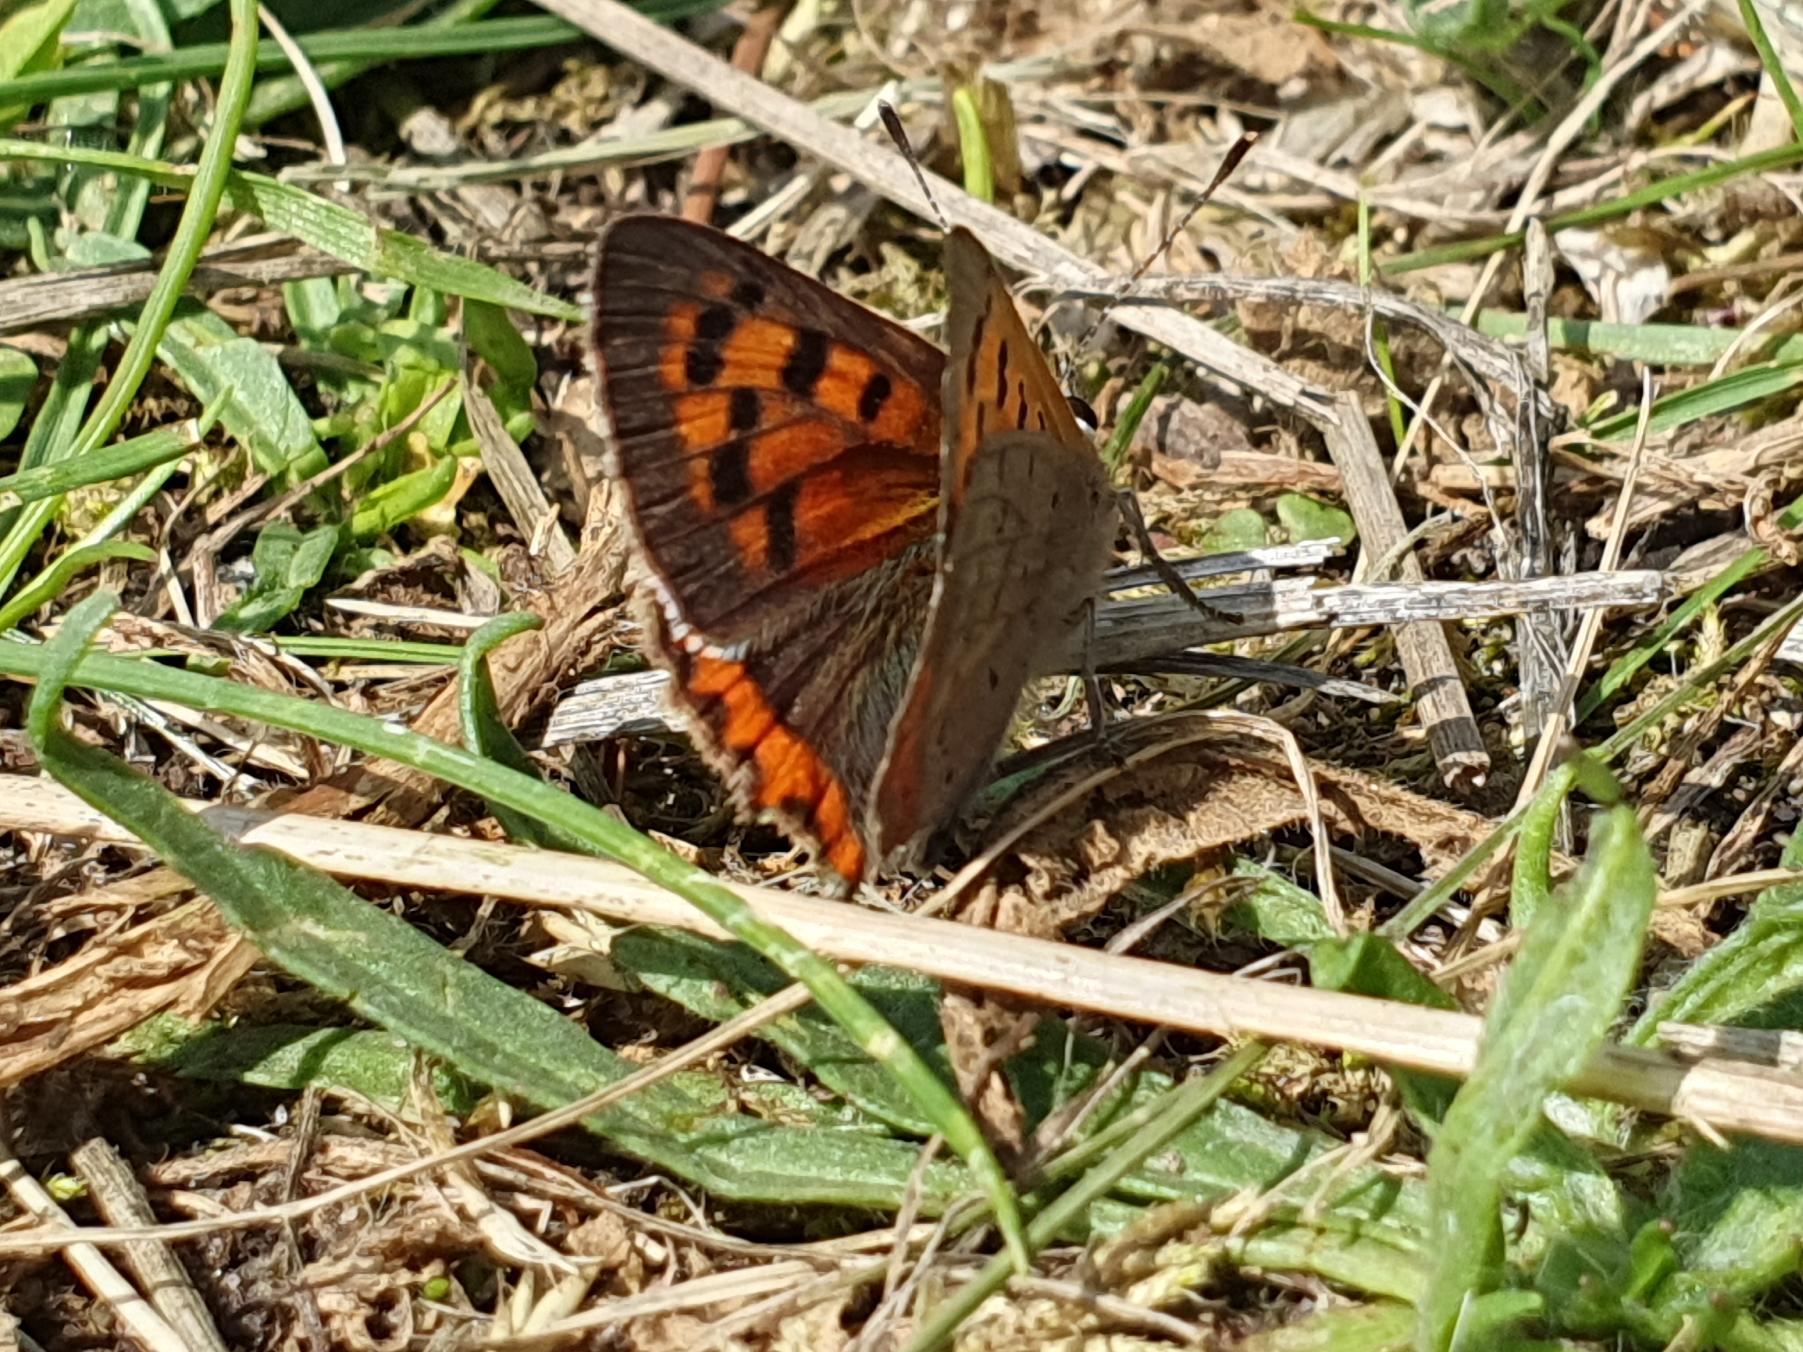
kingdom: Animalia
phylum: Arthropoda
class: Insecta
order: Lepidoptera
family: Lycaenidae
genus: Lycaena
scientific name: Lycaena phlaeas
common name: Lille ildfugl
